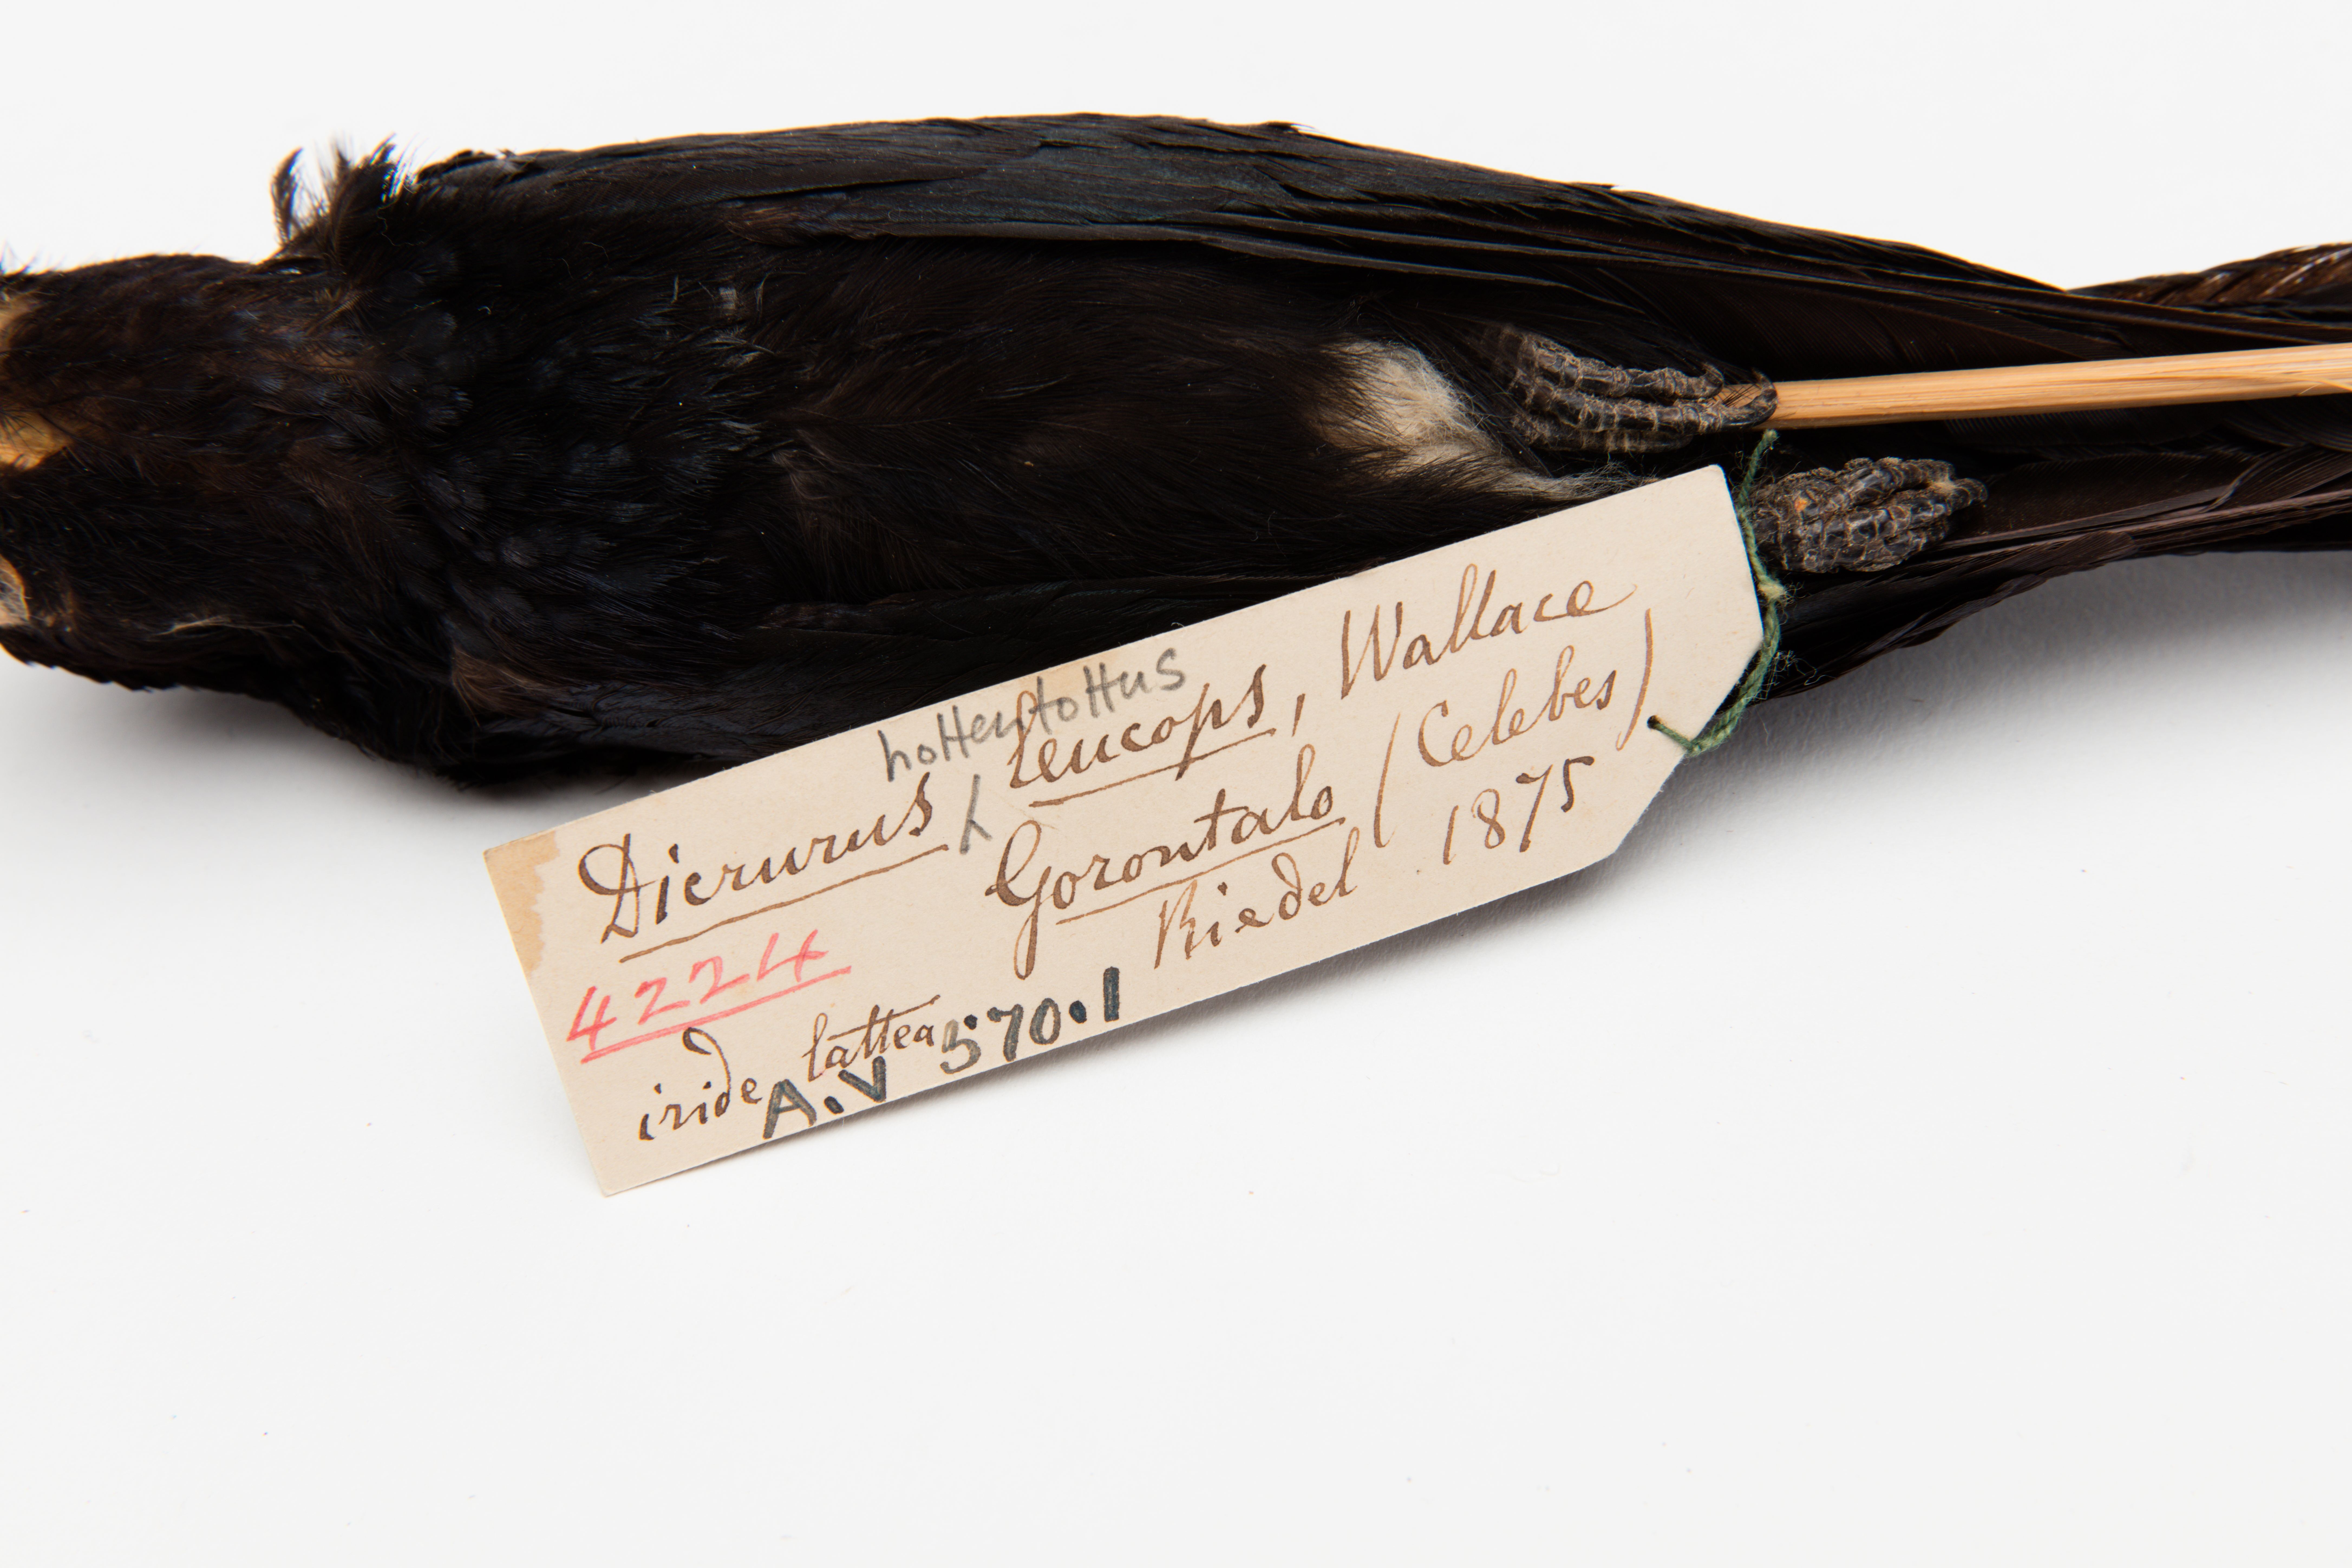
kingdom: Animalia
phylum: Chordata
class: Aves
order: Passeriformes
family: Dicruridae
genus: Dicrurus
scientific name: Dicrurus hottentottus
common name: Hair-crested drongo
